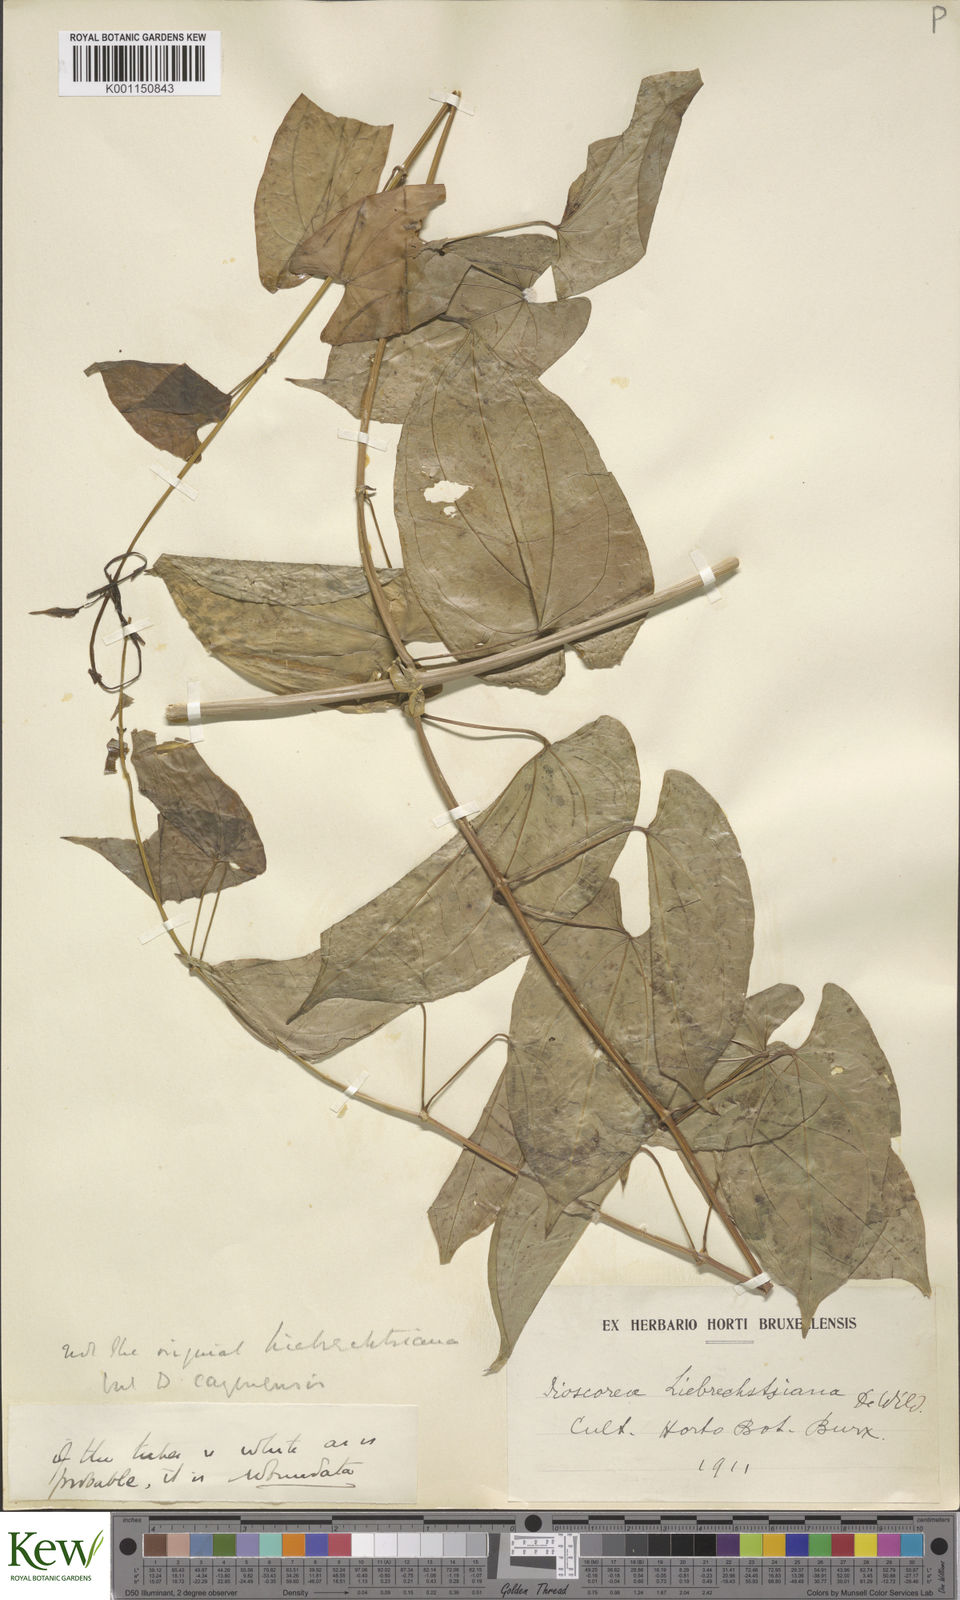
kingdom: Plantae
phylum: Tracheophyta
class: Liliopsida
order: Dioscoreales
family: Dioscoreaceae
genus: Dioscorea
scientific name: Dioscorea cayenensis
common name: Attoto yam
